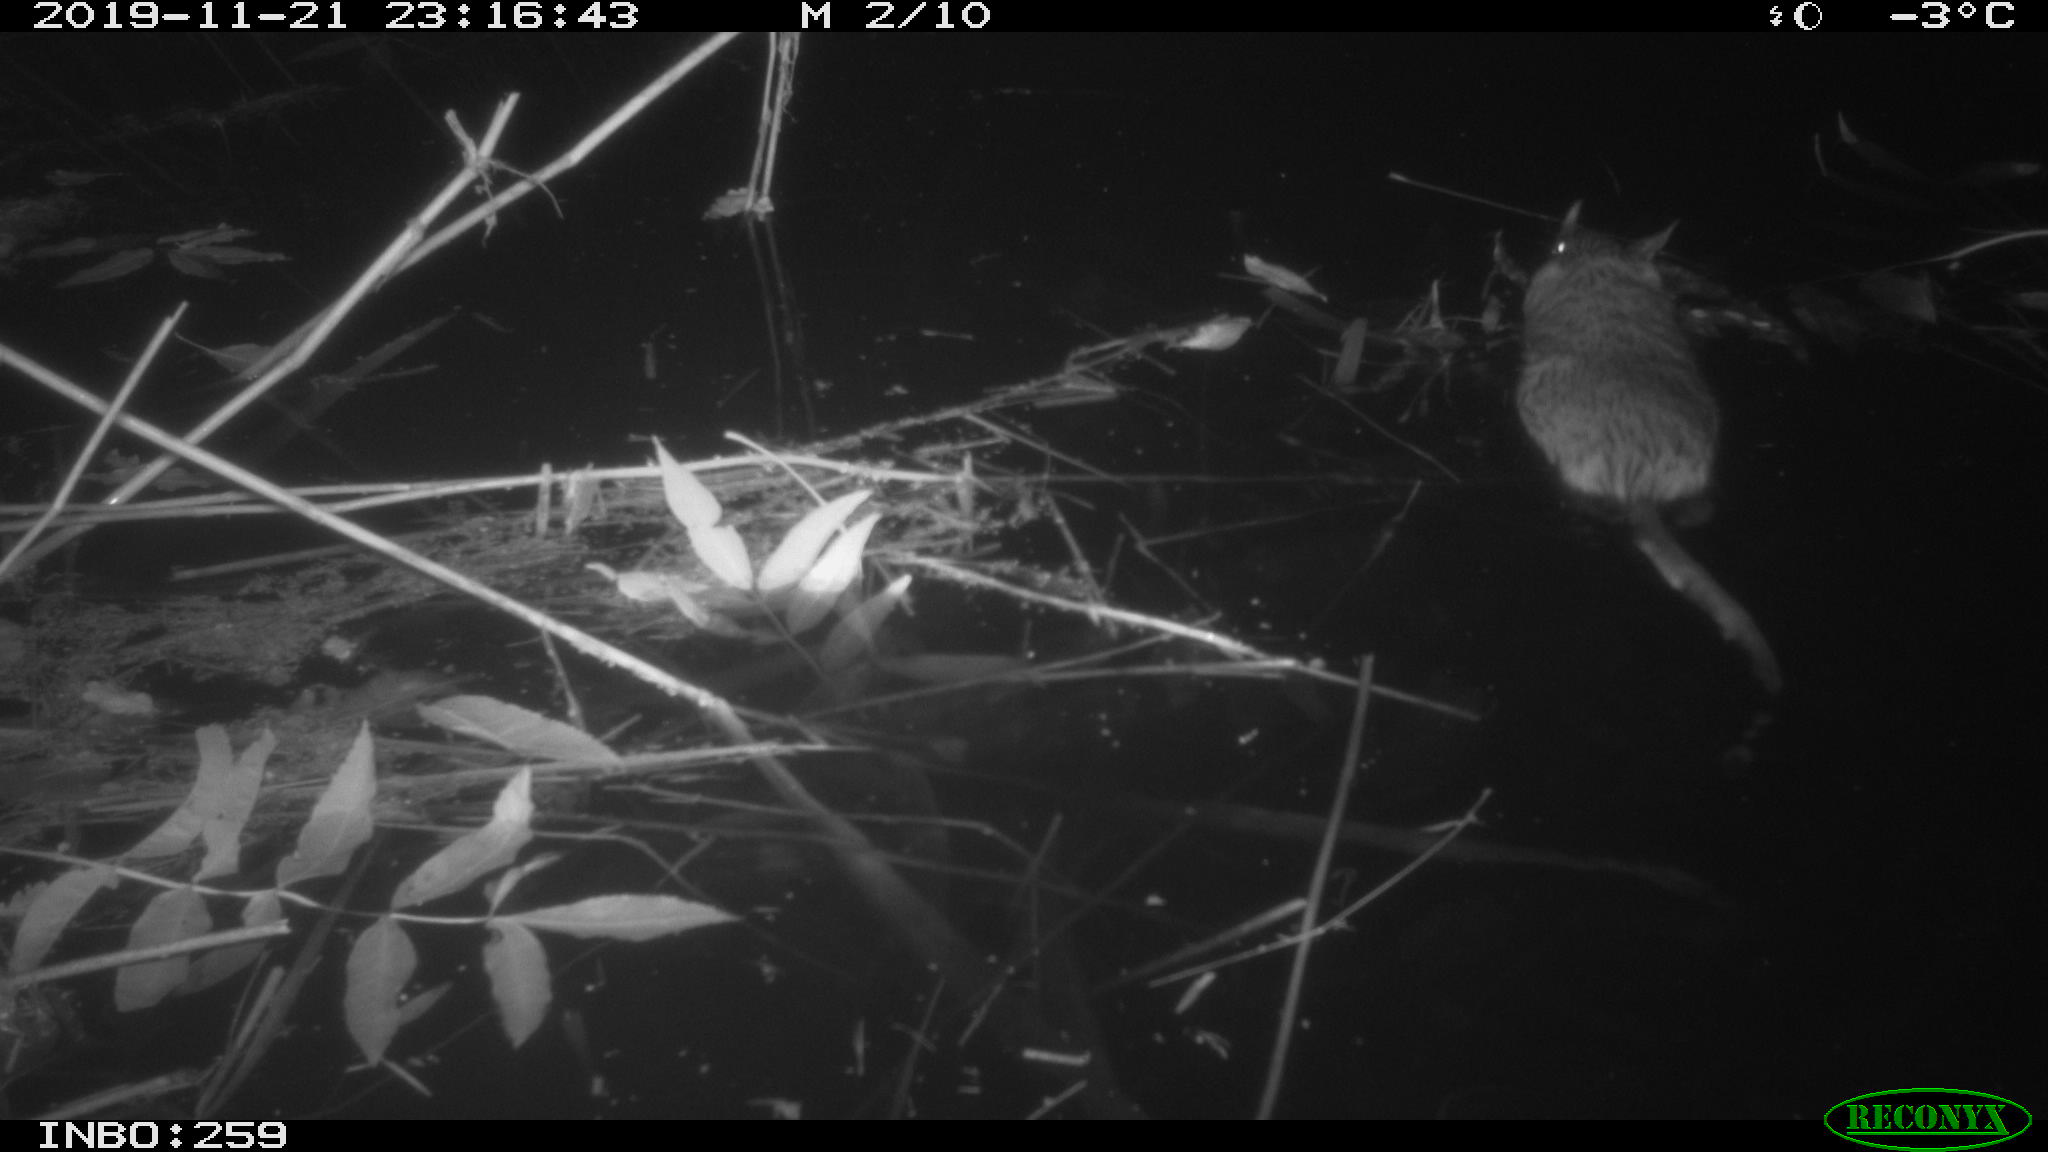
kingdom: Animalia
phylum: Chordata
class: Mammalia
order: Rodentia
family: Cricetidae
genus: Ondatra
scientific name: Ondatra zibethicus
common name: Muskrat
